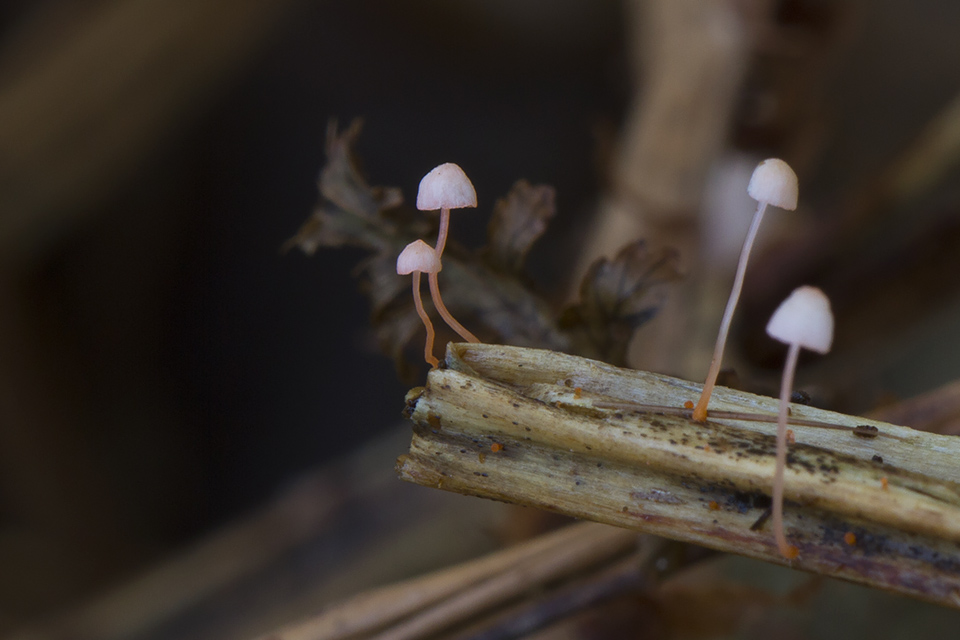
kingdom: Fungi
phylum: Basidiomycota
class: Agaricomycetes
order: Agaricales
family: Mycenaceae
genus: Mycena
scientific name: Mycena pterigena
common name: bregne-huesvamp
